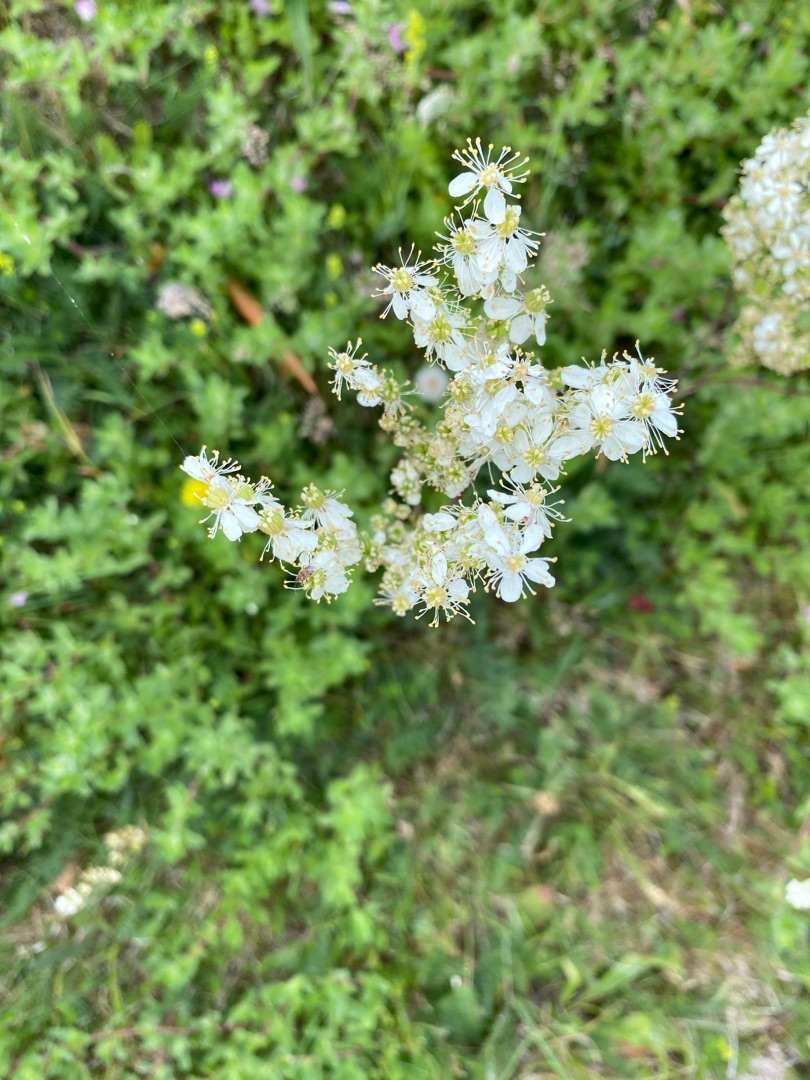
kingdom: Plantae
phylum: Tracheophyta
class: Magnoliopsida
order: Rosales
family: Rosaceae
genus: Filipendula
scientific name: Filipendula vulgaris
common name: Knoldet mjødurt
